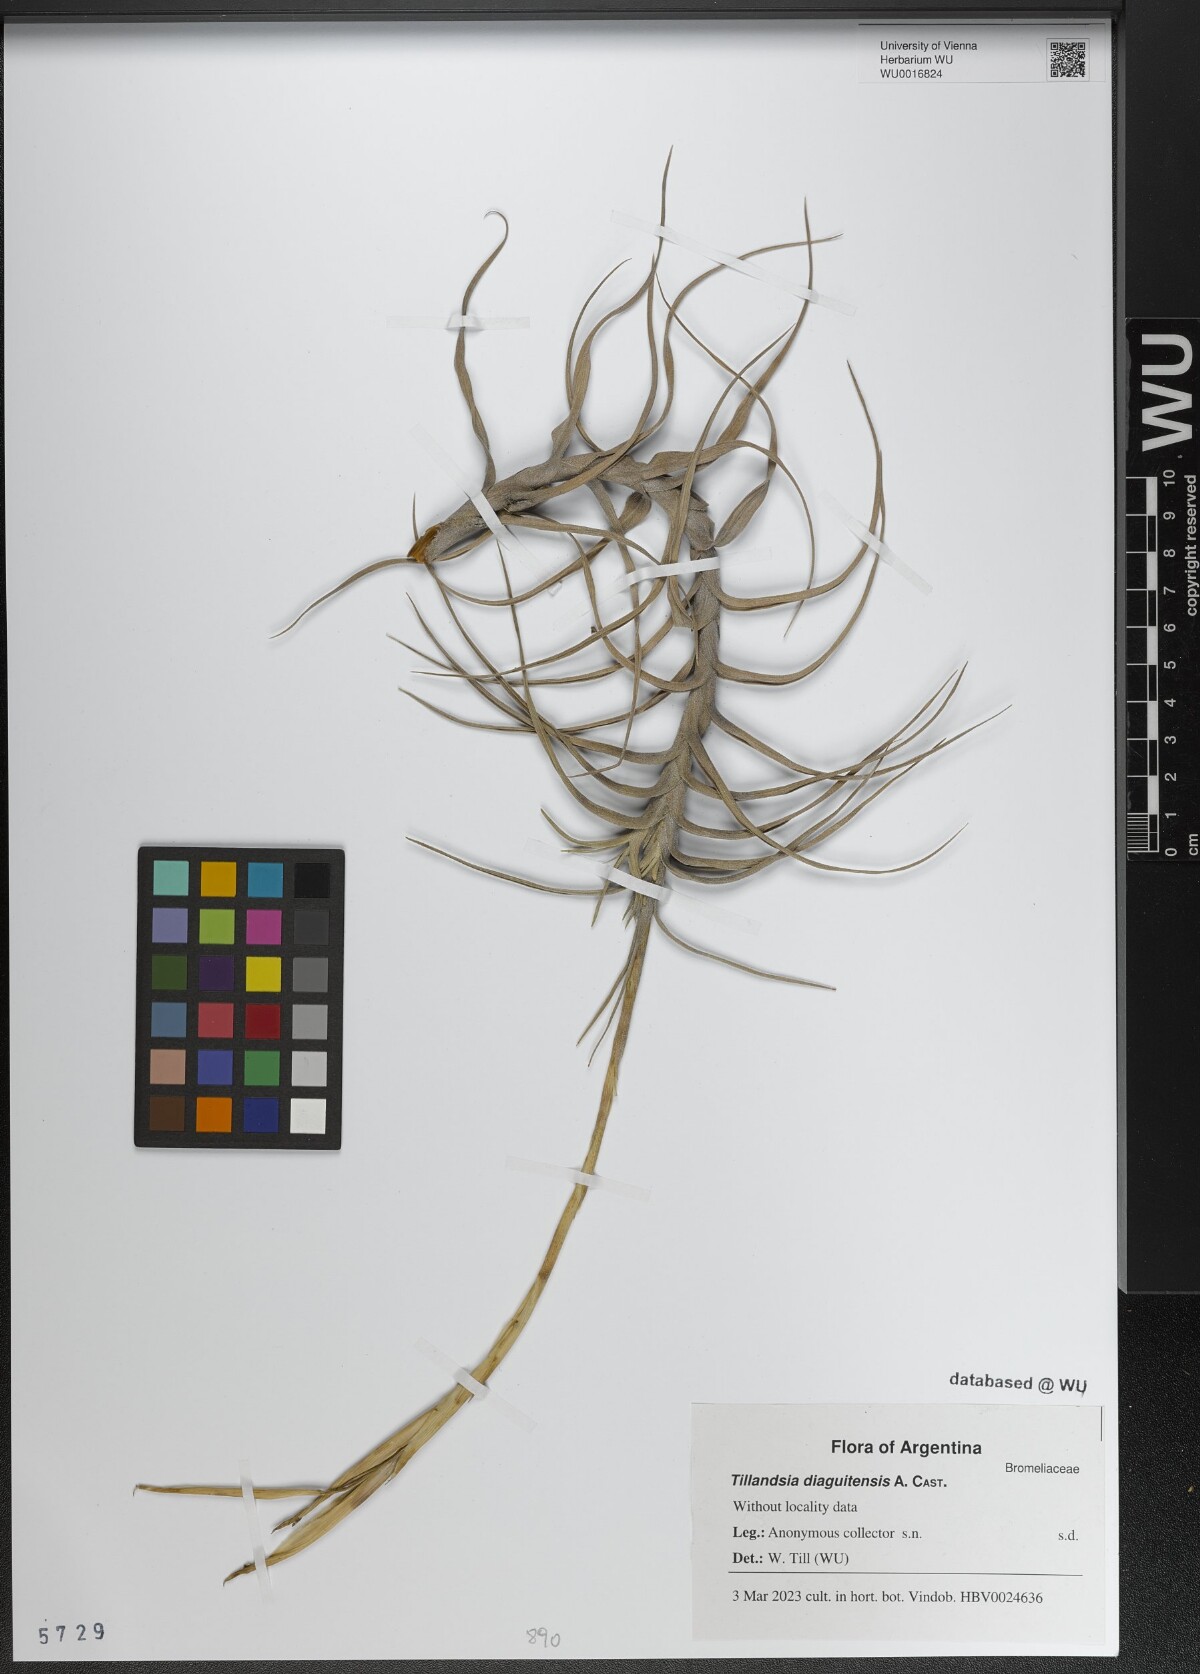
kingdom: Plantae
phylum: Tracheophyta
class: Liliopsida
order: Poales
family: Bromeliaceae
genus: Tillandsia
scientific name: Tillandsia diaguitensis
